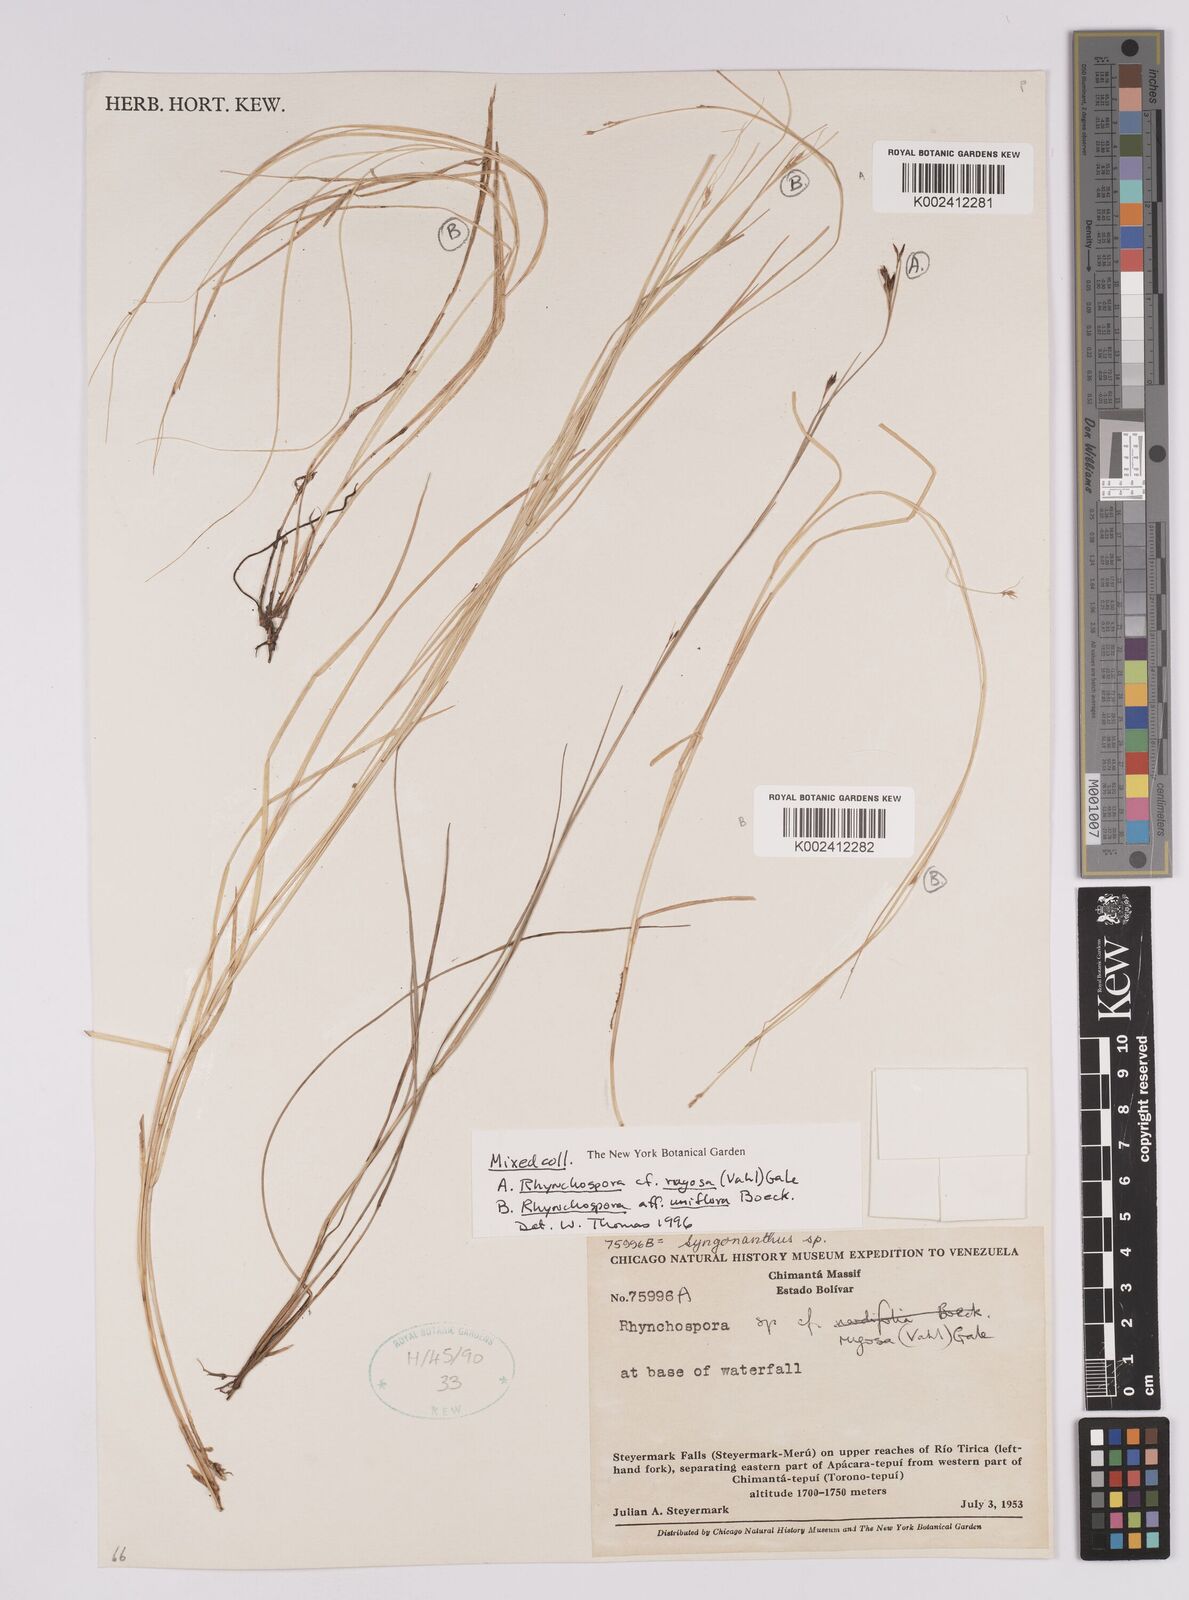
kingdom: Plantae
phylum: Tracheophyta
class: Liliopsida
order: Poales
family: Cyperaceae
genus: Rhynchospora
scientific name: Rhynchospora biflora
